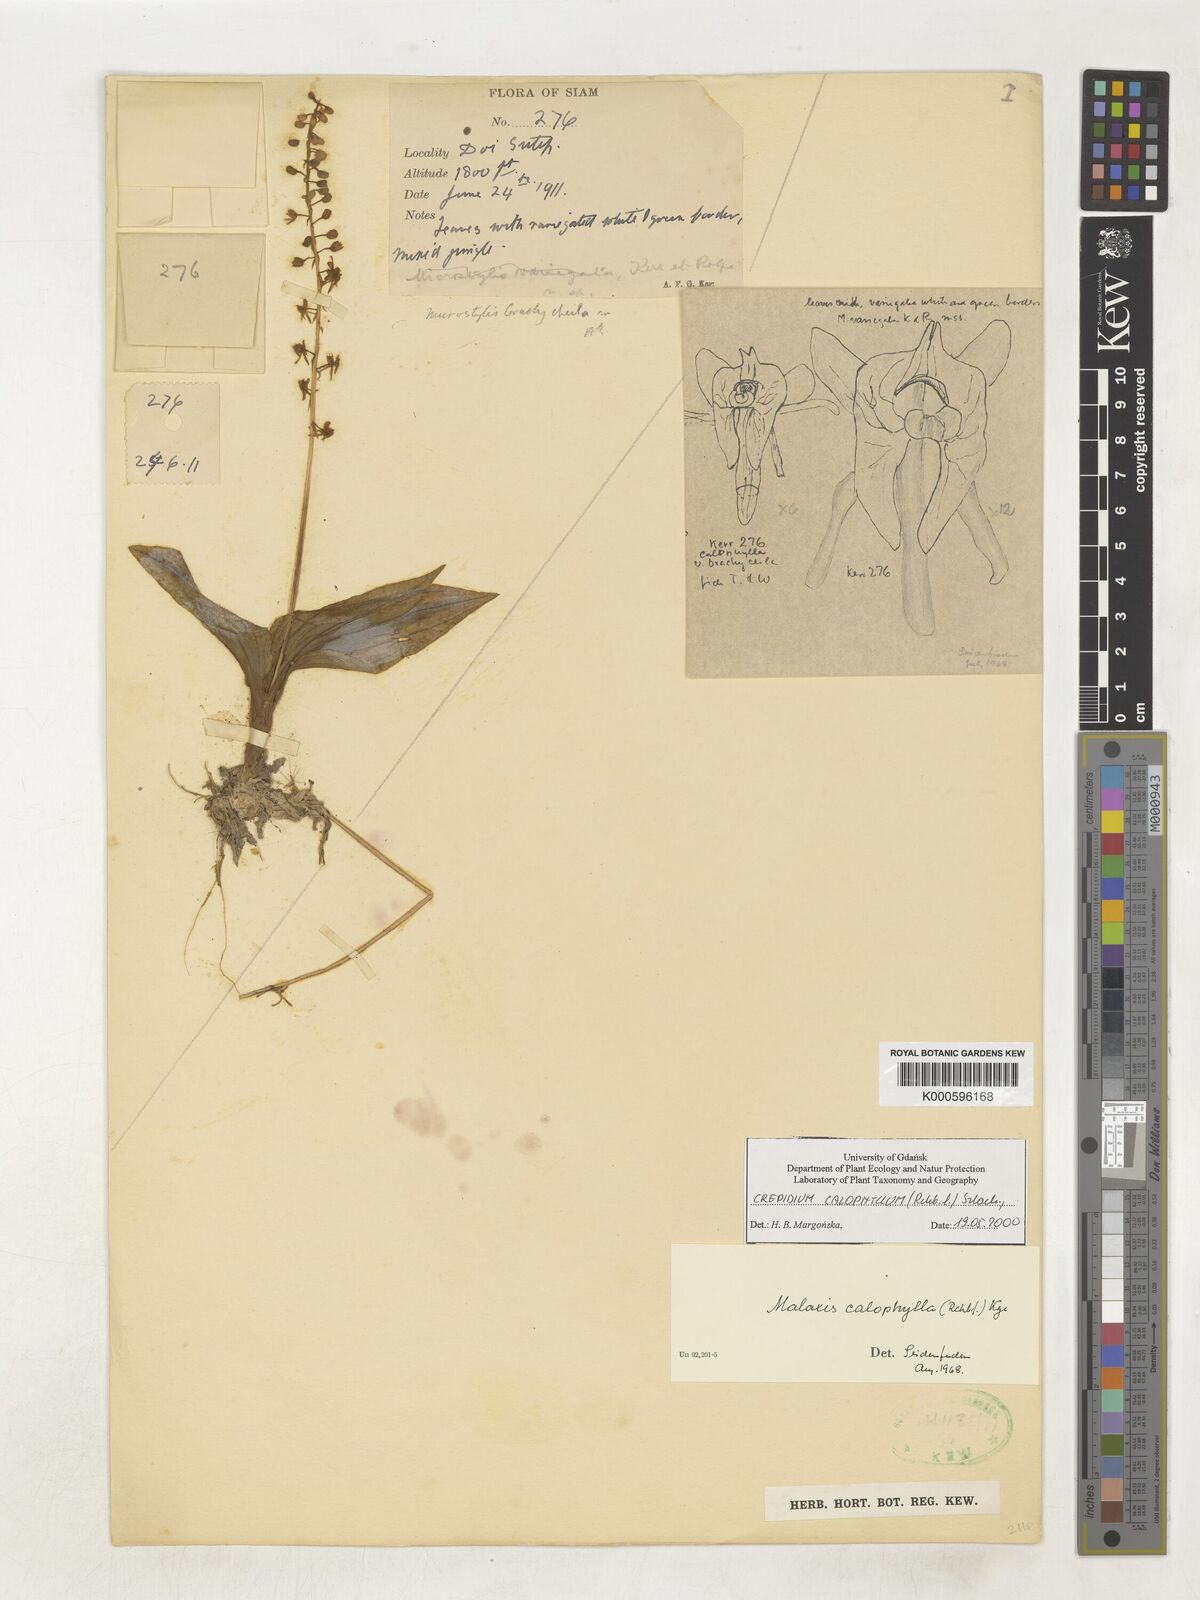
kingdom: Plantae
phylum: Tracheophyta
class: Liliopsida
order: Asparagales
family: Orchidaceae
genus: Crepidium
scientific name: Crepidium calophyllum
